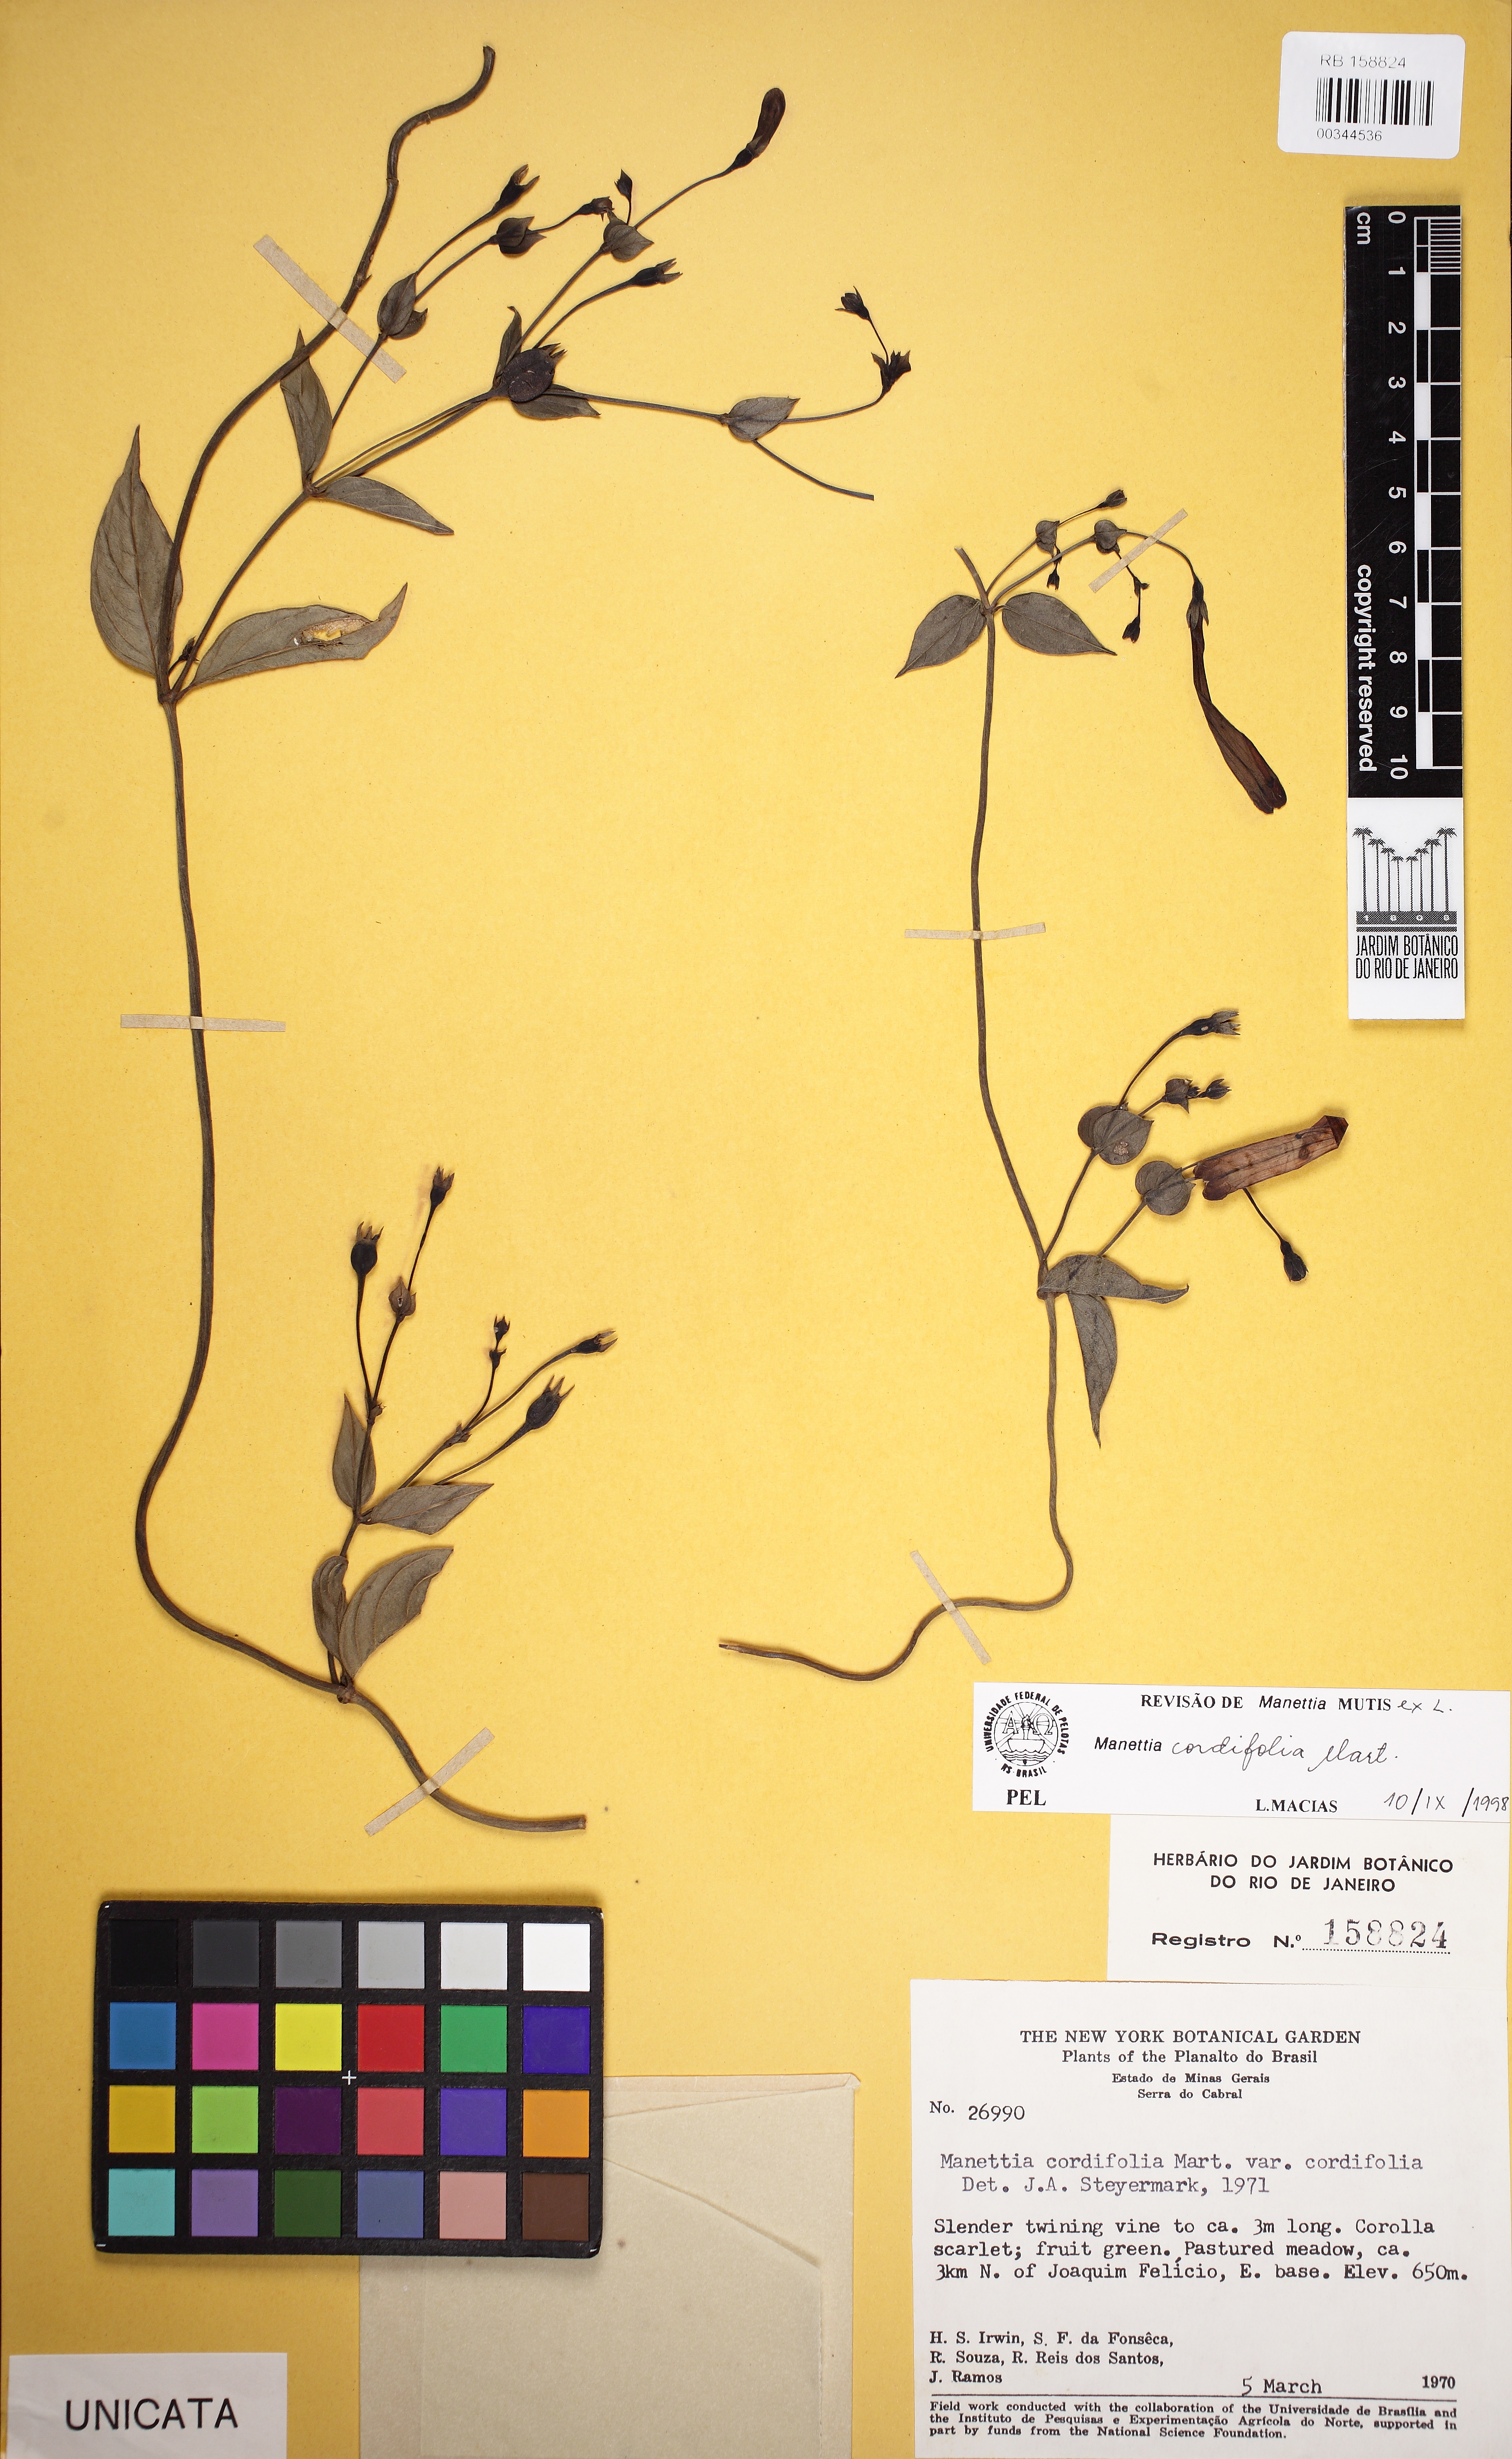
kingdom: Plantae
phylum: Tracheophyta
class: Magnoliopsida
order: Gentianales
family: Rubiaceae
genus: Manettia
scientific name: Manettia cordifolia
